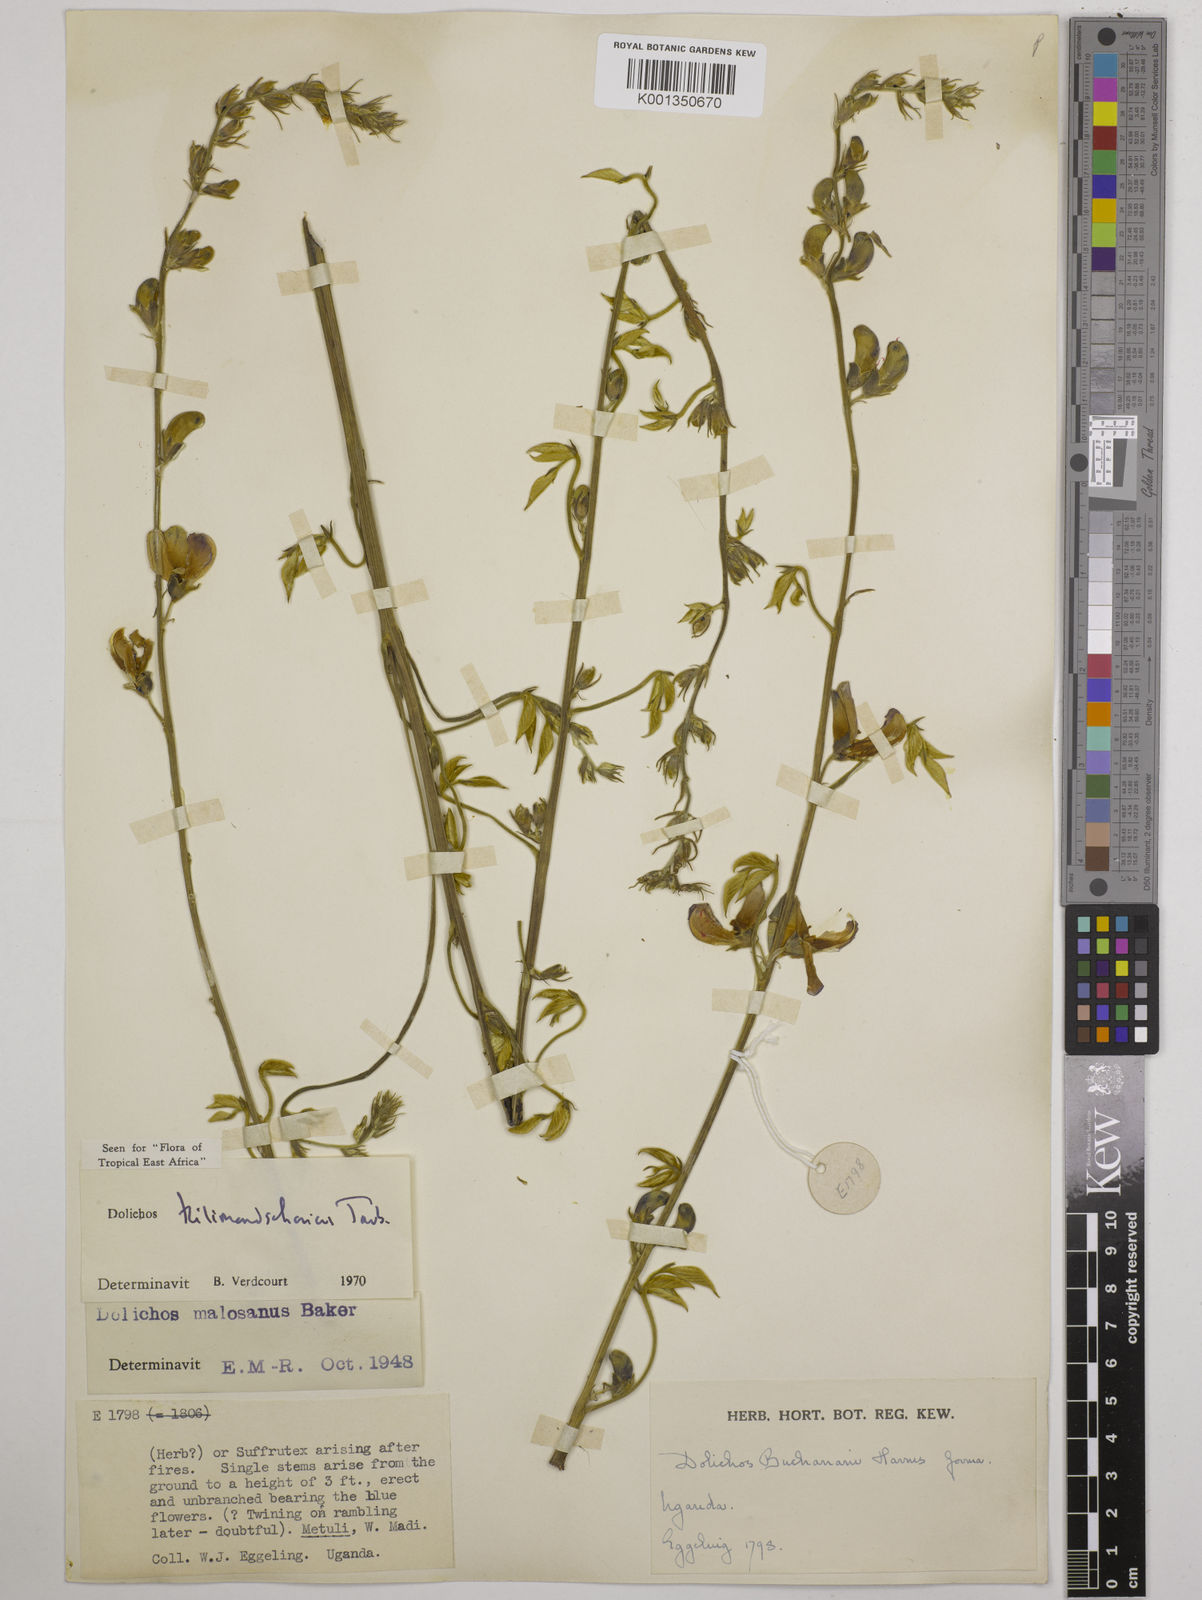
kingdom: Plantae
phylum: Tracheophyta
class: Magnoliopsida
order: Fabales
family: Fabaceae
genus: Dolichos
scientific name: Dolichos kilimandscharicus
